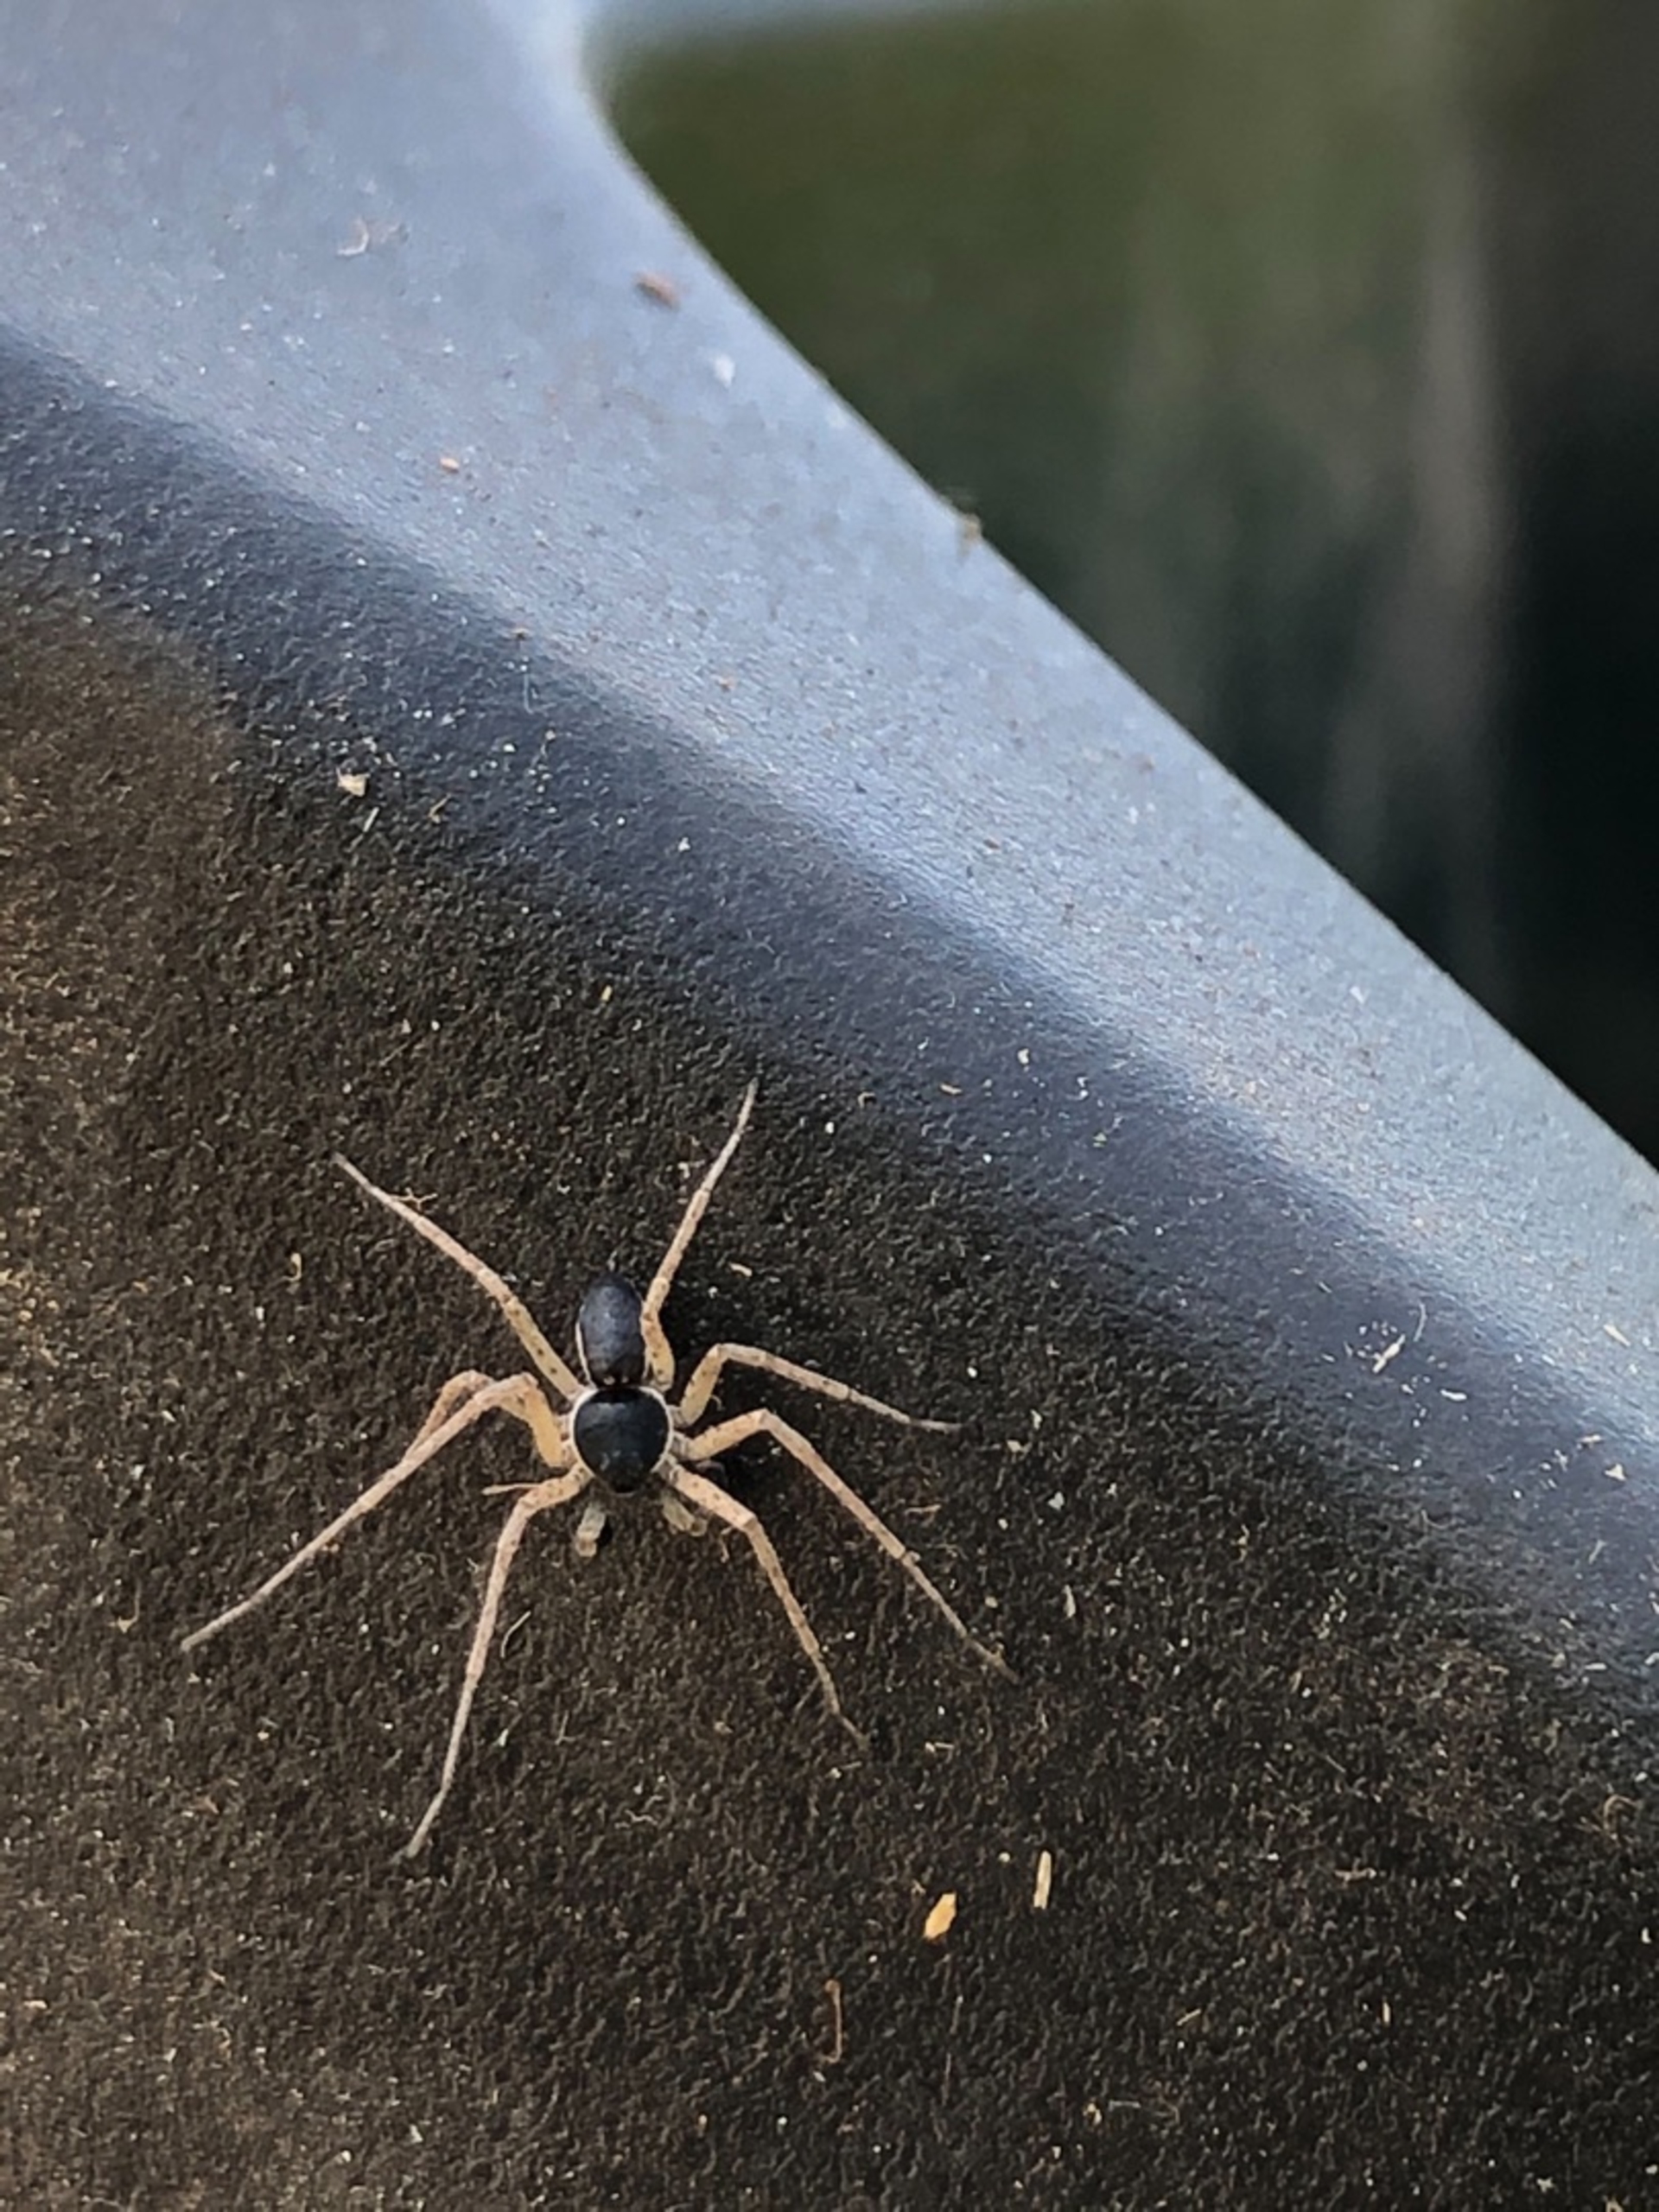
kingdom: Animalia
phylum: Arthropoda
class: Arachnida
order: Araneae
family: Philodromidae
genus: Philodromus
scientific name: Philodromus dispar
